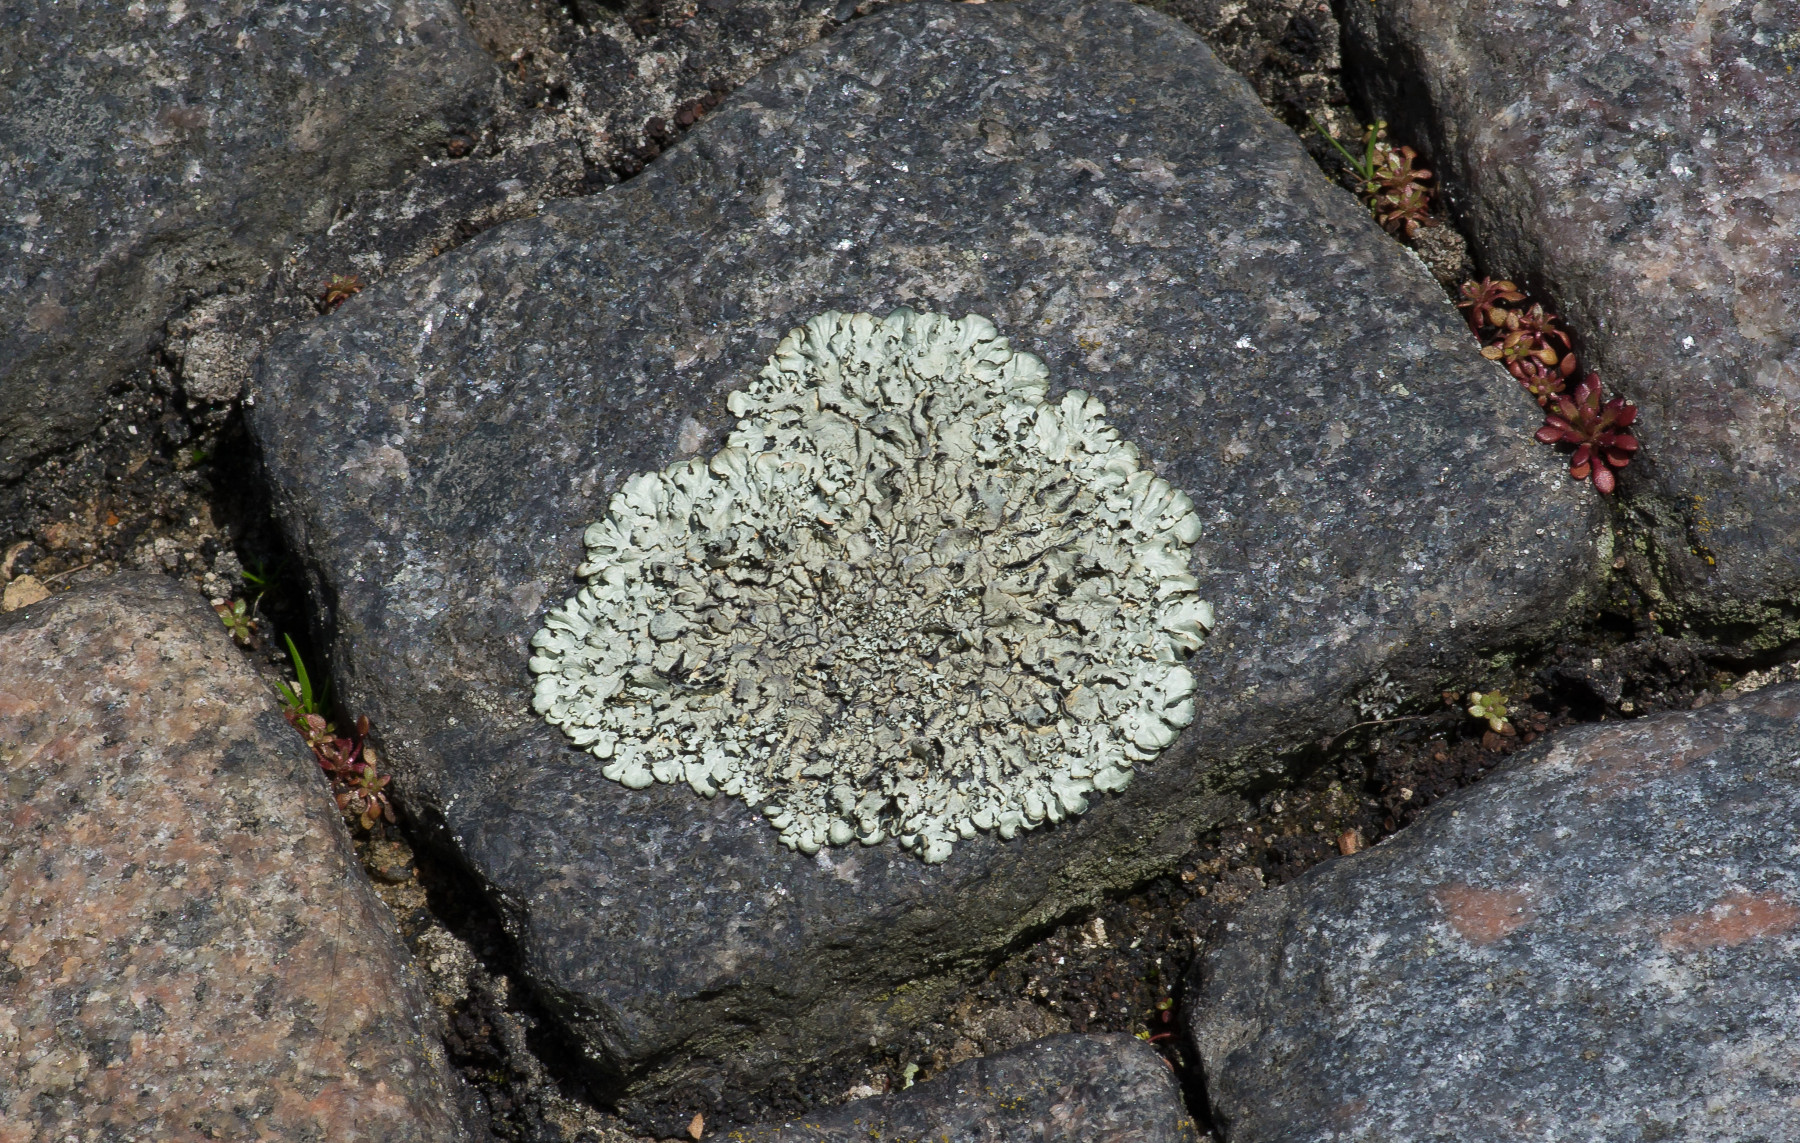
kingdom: Fungi
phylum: Ascomycota
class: Lecanoromycetes
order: Lecanorales
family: Parmeliaceae
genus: Xanthoparmelia
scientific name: Xanthoparmelia stenophylla
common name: Shingled rock shield
